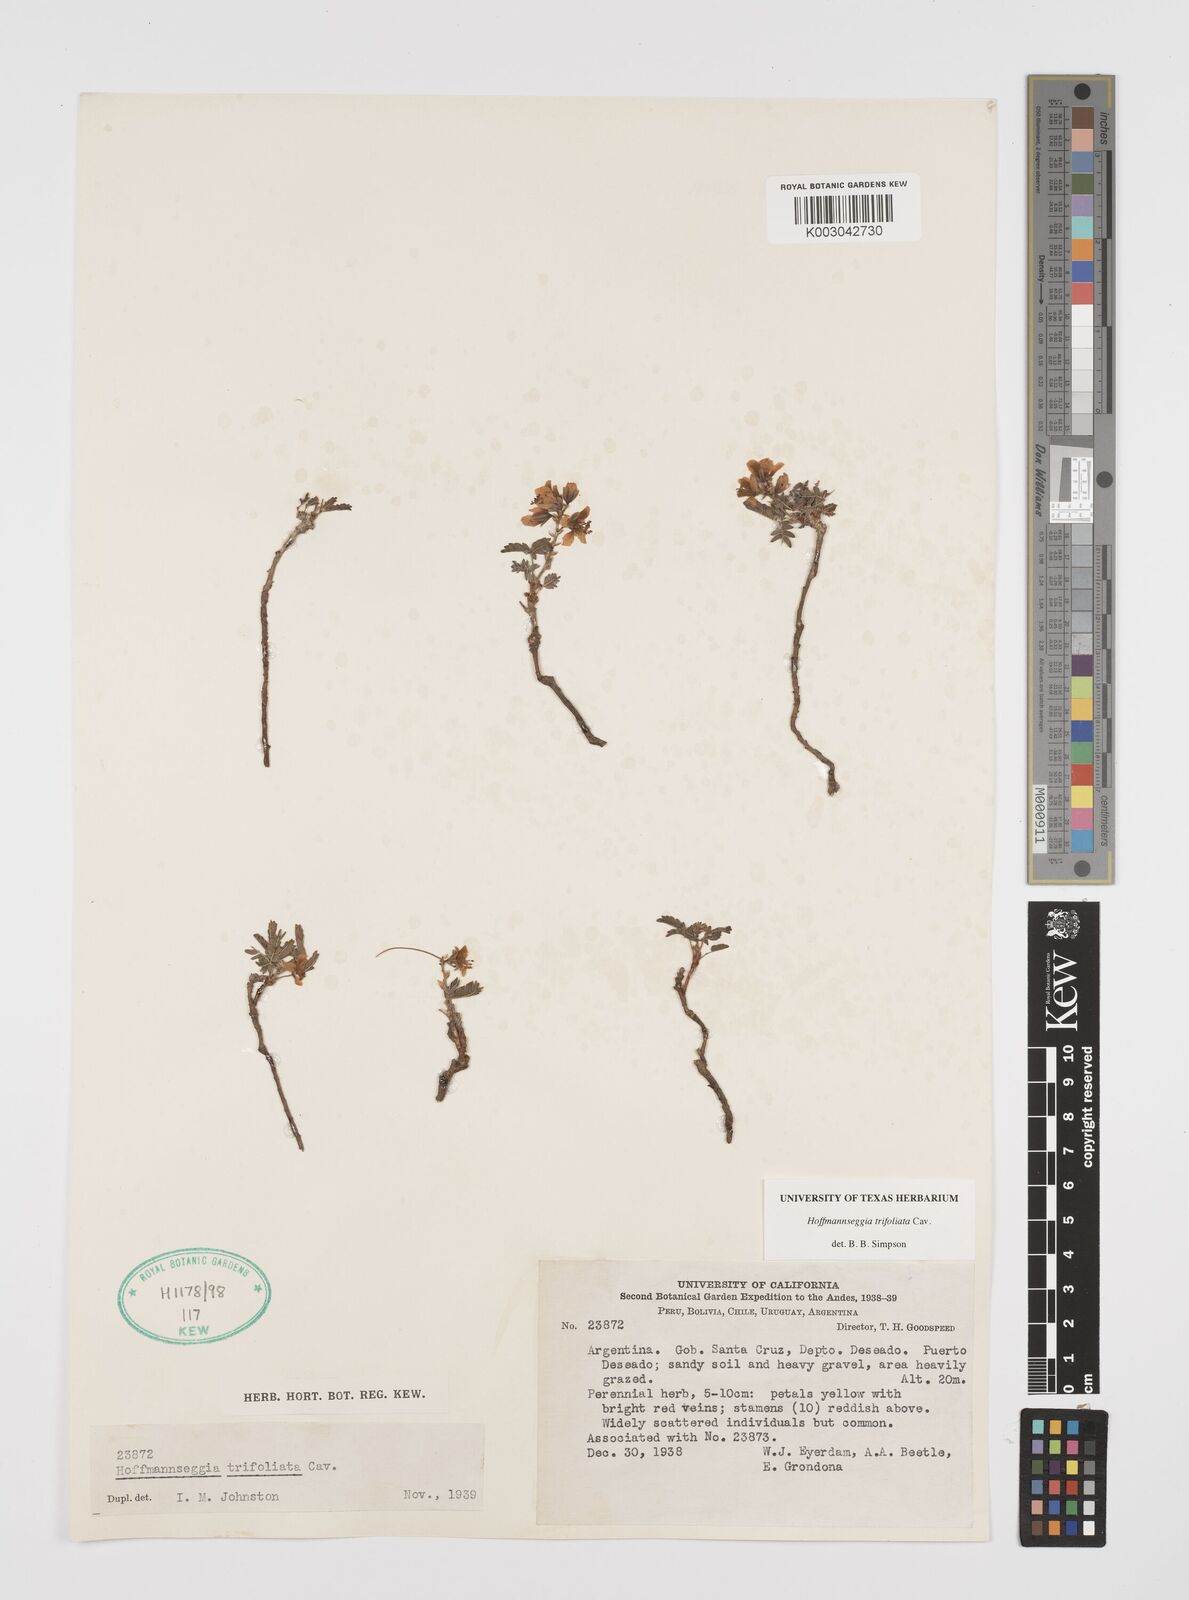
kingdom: Plantae
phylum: Tracheophyta
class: Magnoliopsida
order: Fabales
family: Fabaceae
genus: Hoffmannseggia
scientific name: Hoffmannseggia trifoliata
